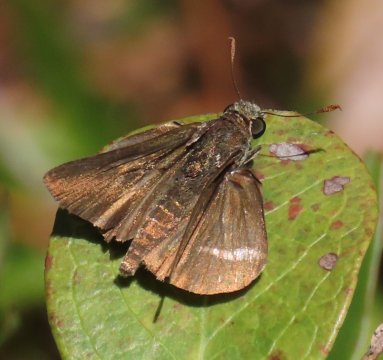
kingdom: Animalia
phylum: Arthropoda
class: Insecta
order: Lepidoptera
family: Hesperiidae
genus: Euphyes
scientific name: Euphyes vestris
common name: Dun Skipper
